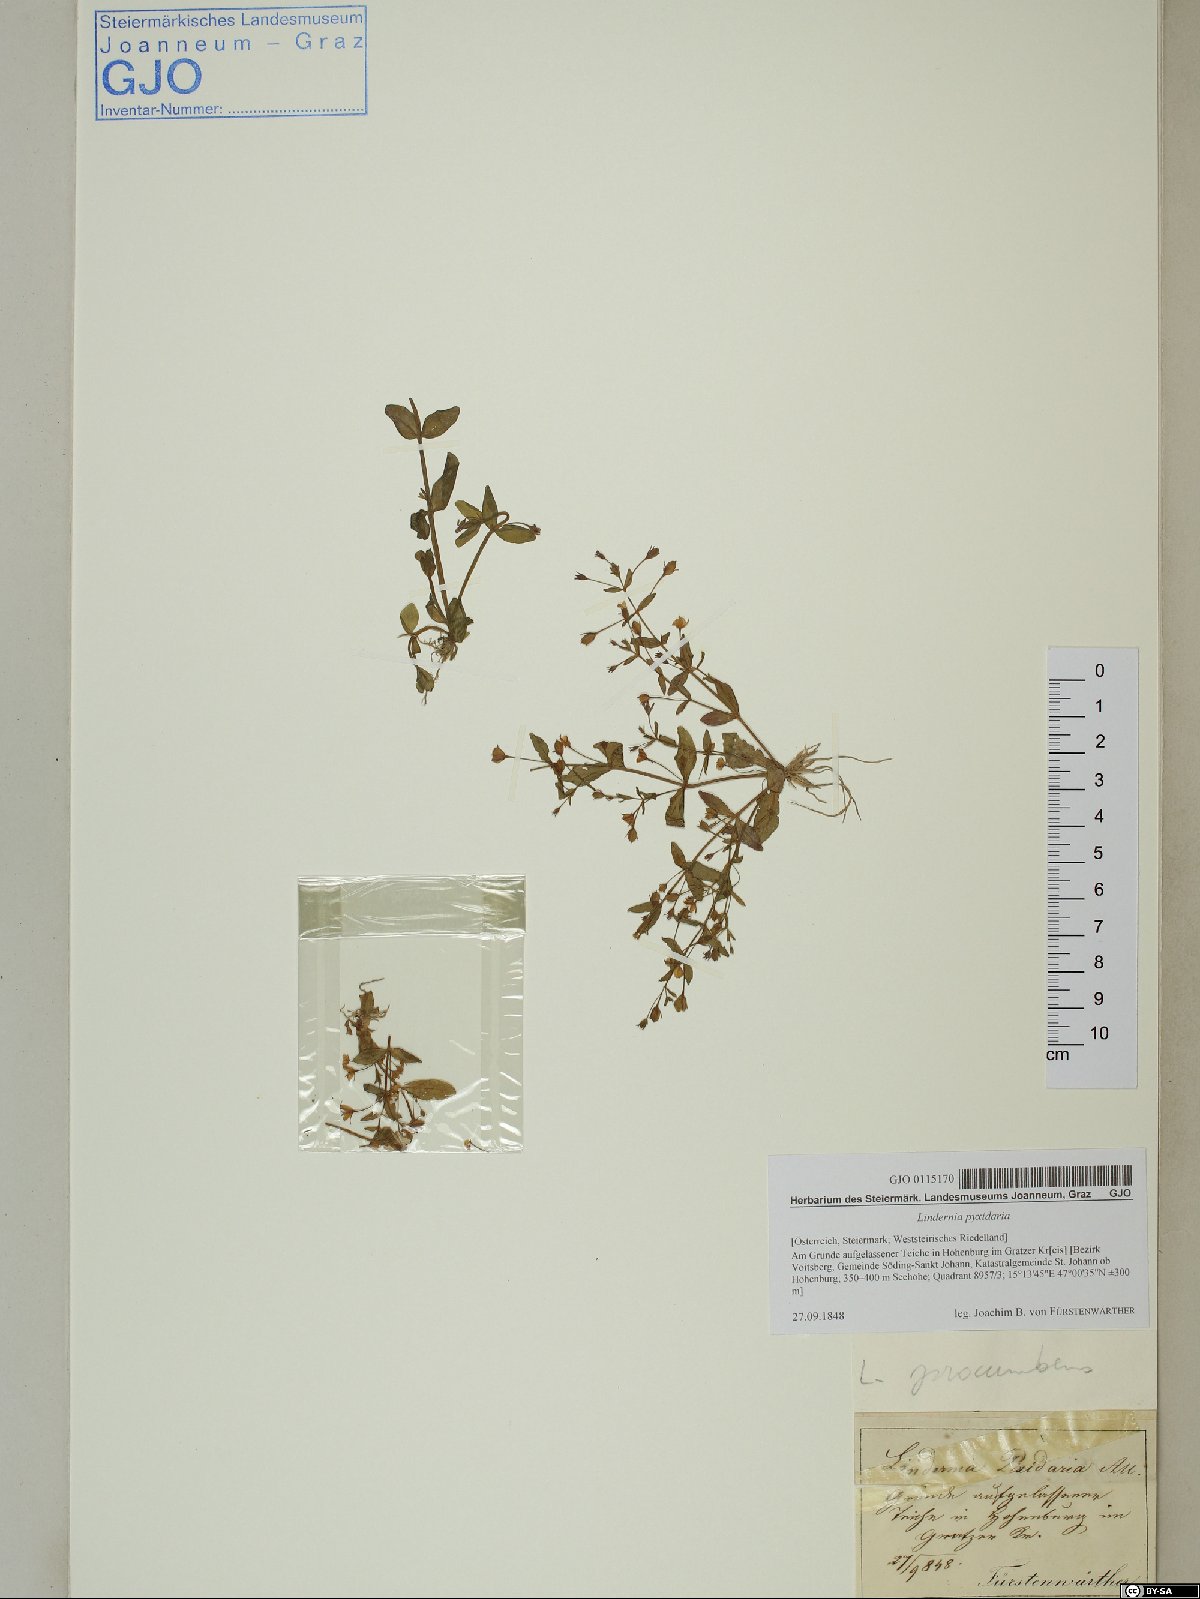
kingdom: Plantae
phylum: Tracheophyta
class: Magnoliopsida
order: Lamiales
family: Linderniaceae
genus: Lindernia
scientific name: Lindernia dubia
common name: Annual false pimpernel
